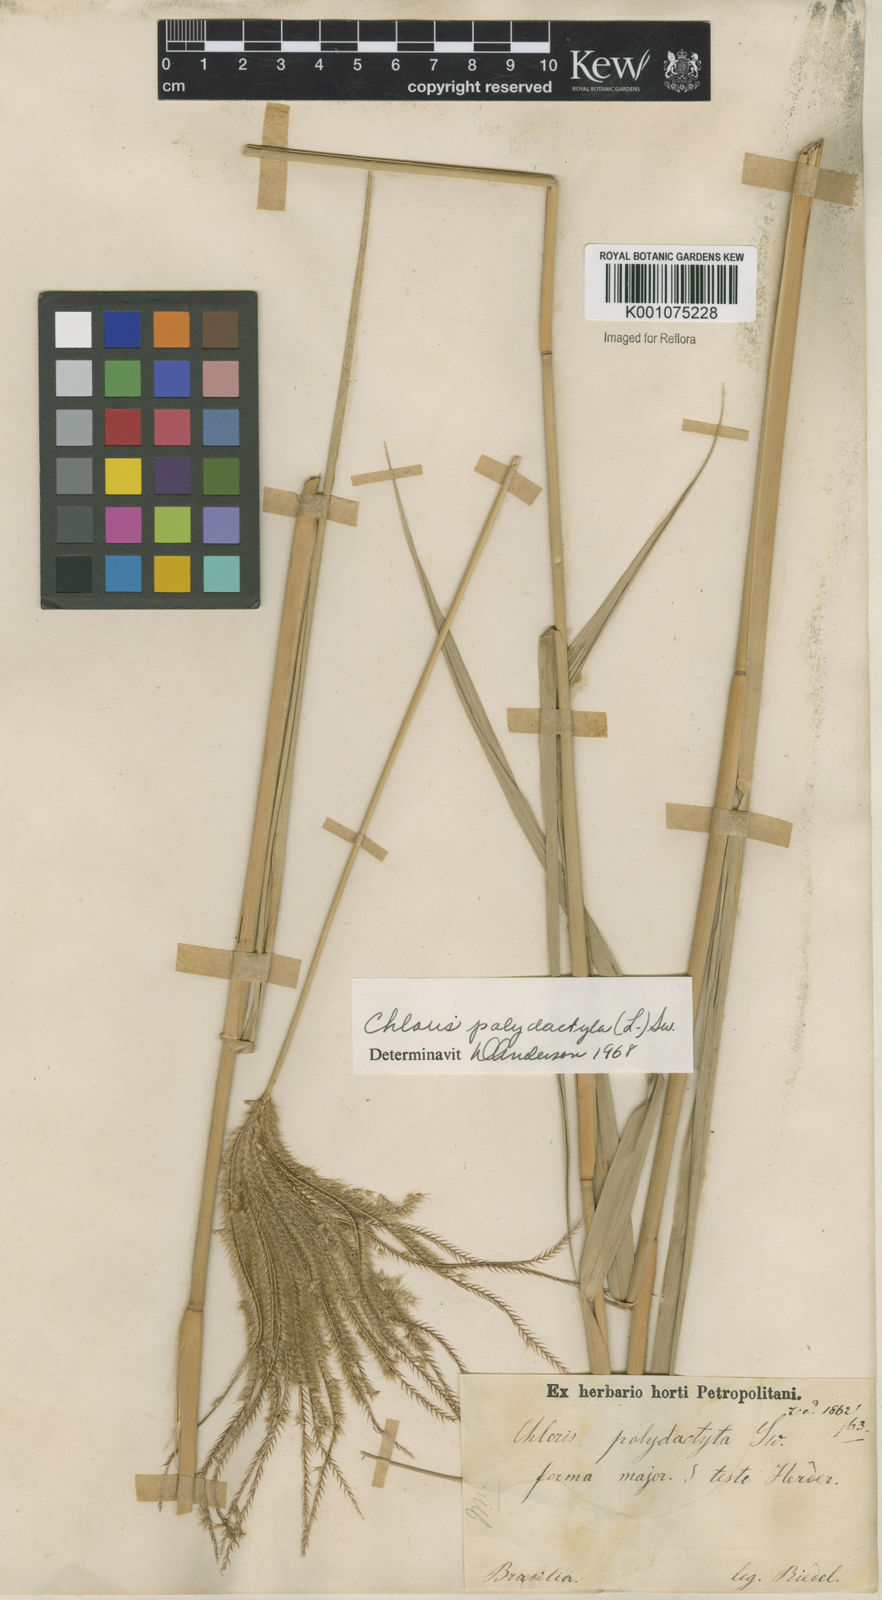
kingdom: Plantae
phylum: Tracheophyta
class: Liliopsida
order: Poales
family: Poaceae
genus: Stapfochloa
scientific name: Stapfochloa elata
